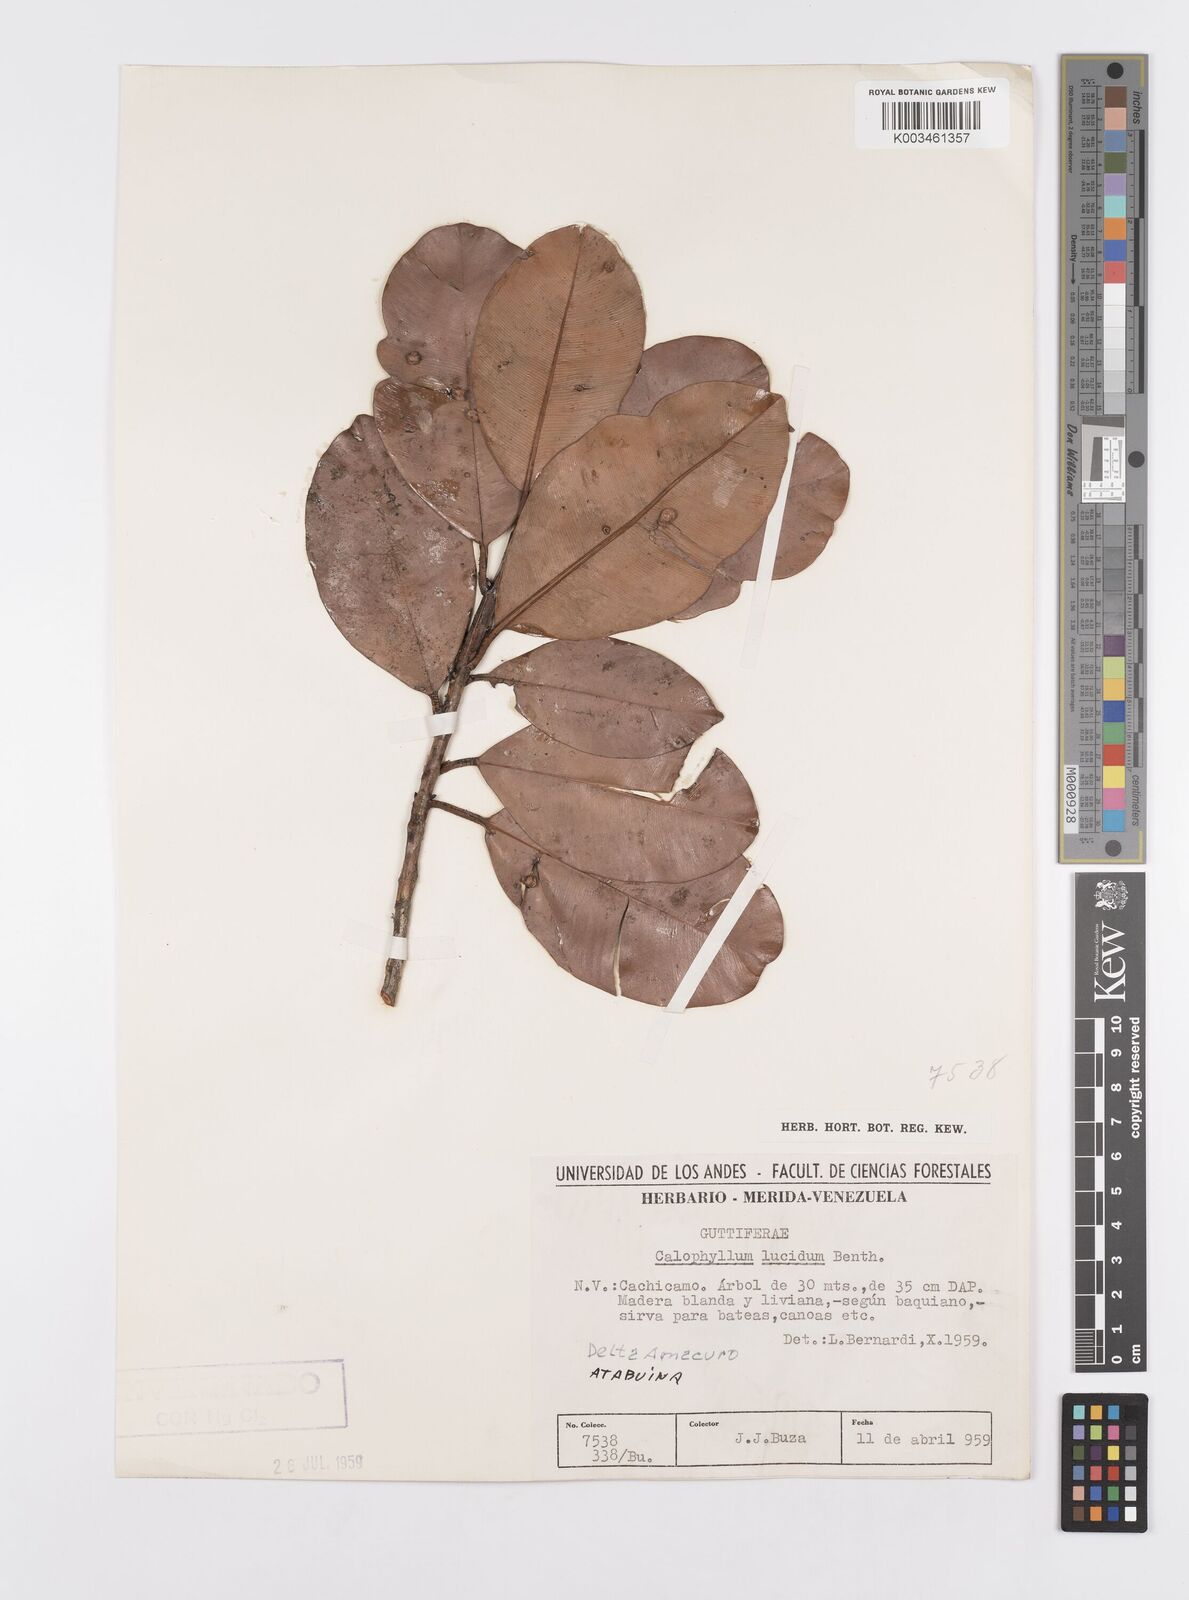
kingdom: Plantae
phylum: Tracheophyta
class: Magnoliopsida
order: Malpighiales
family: Calophyllaceae
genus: Calophyllum
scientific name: Calophyllum brasiliense
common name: Santa maria
